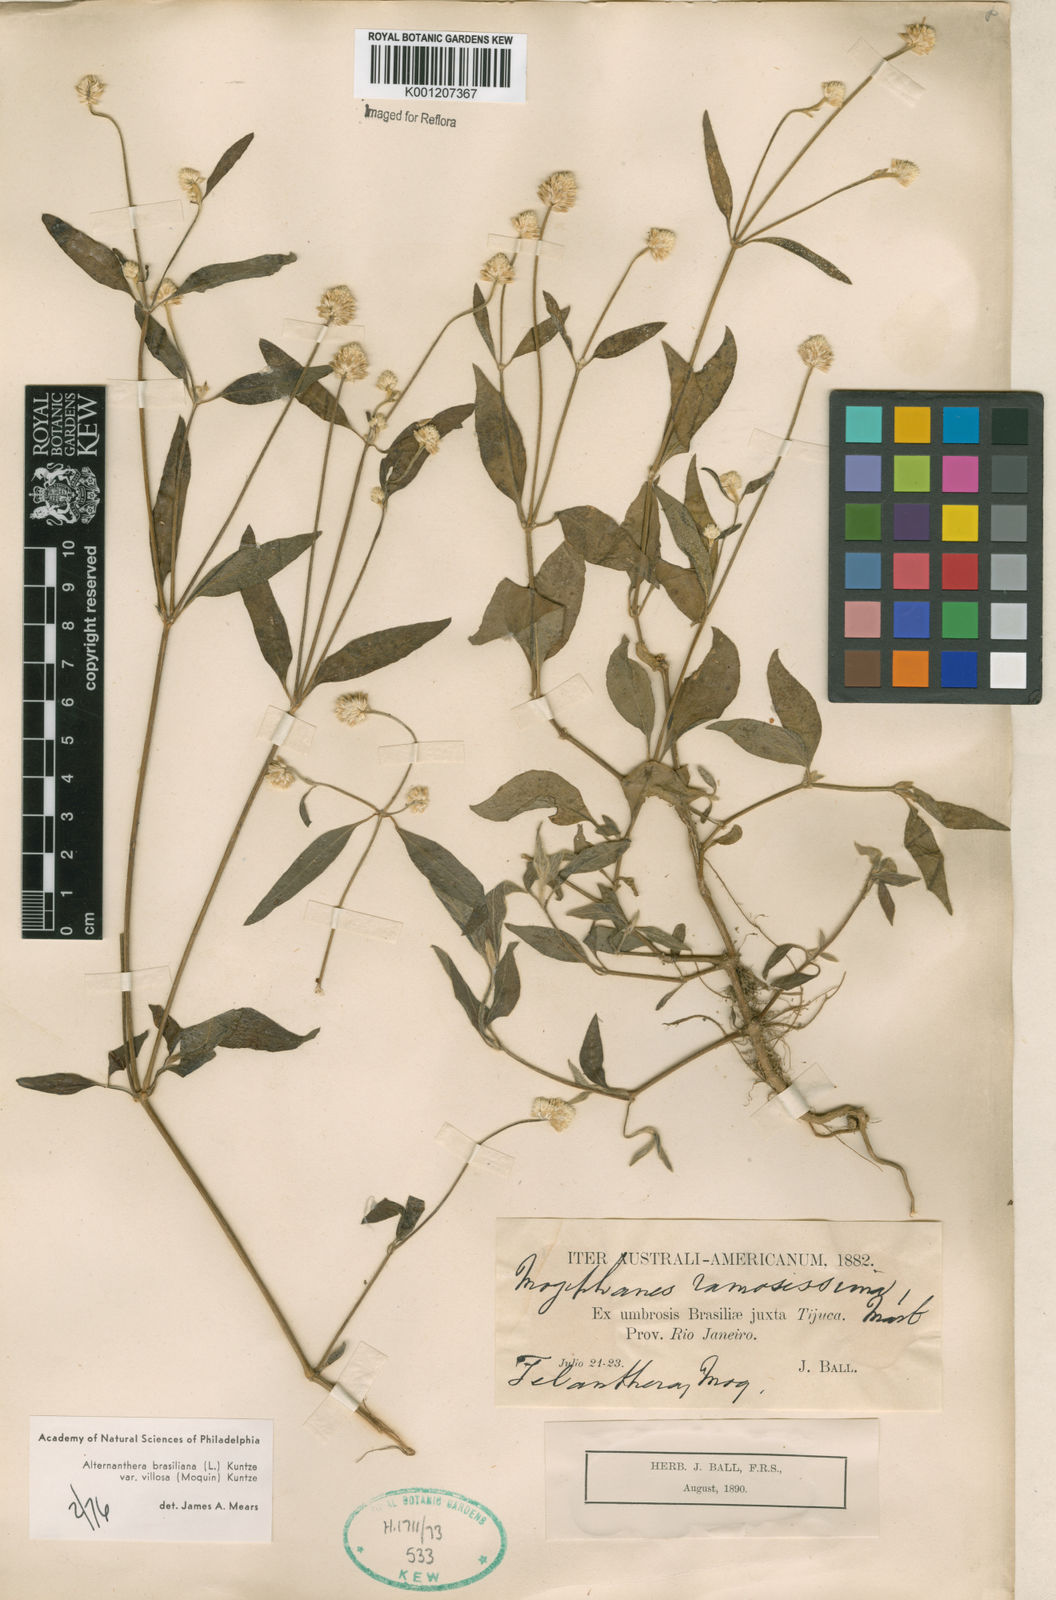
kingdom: Plantae
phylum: Tracheophyta
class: Magnoliopsida
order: Caryophyllales
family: Amaranthaceae
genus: Alternanthera
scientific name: Alternanthera brasiliana
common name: Brazilian joyweed
